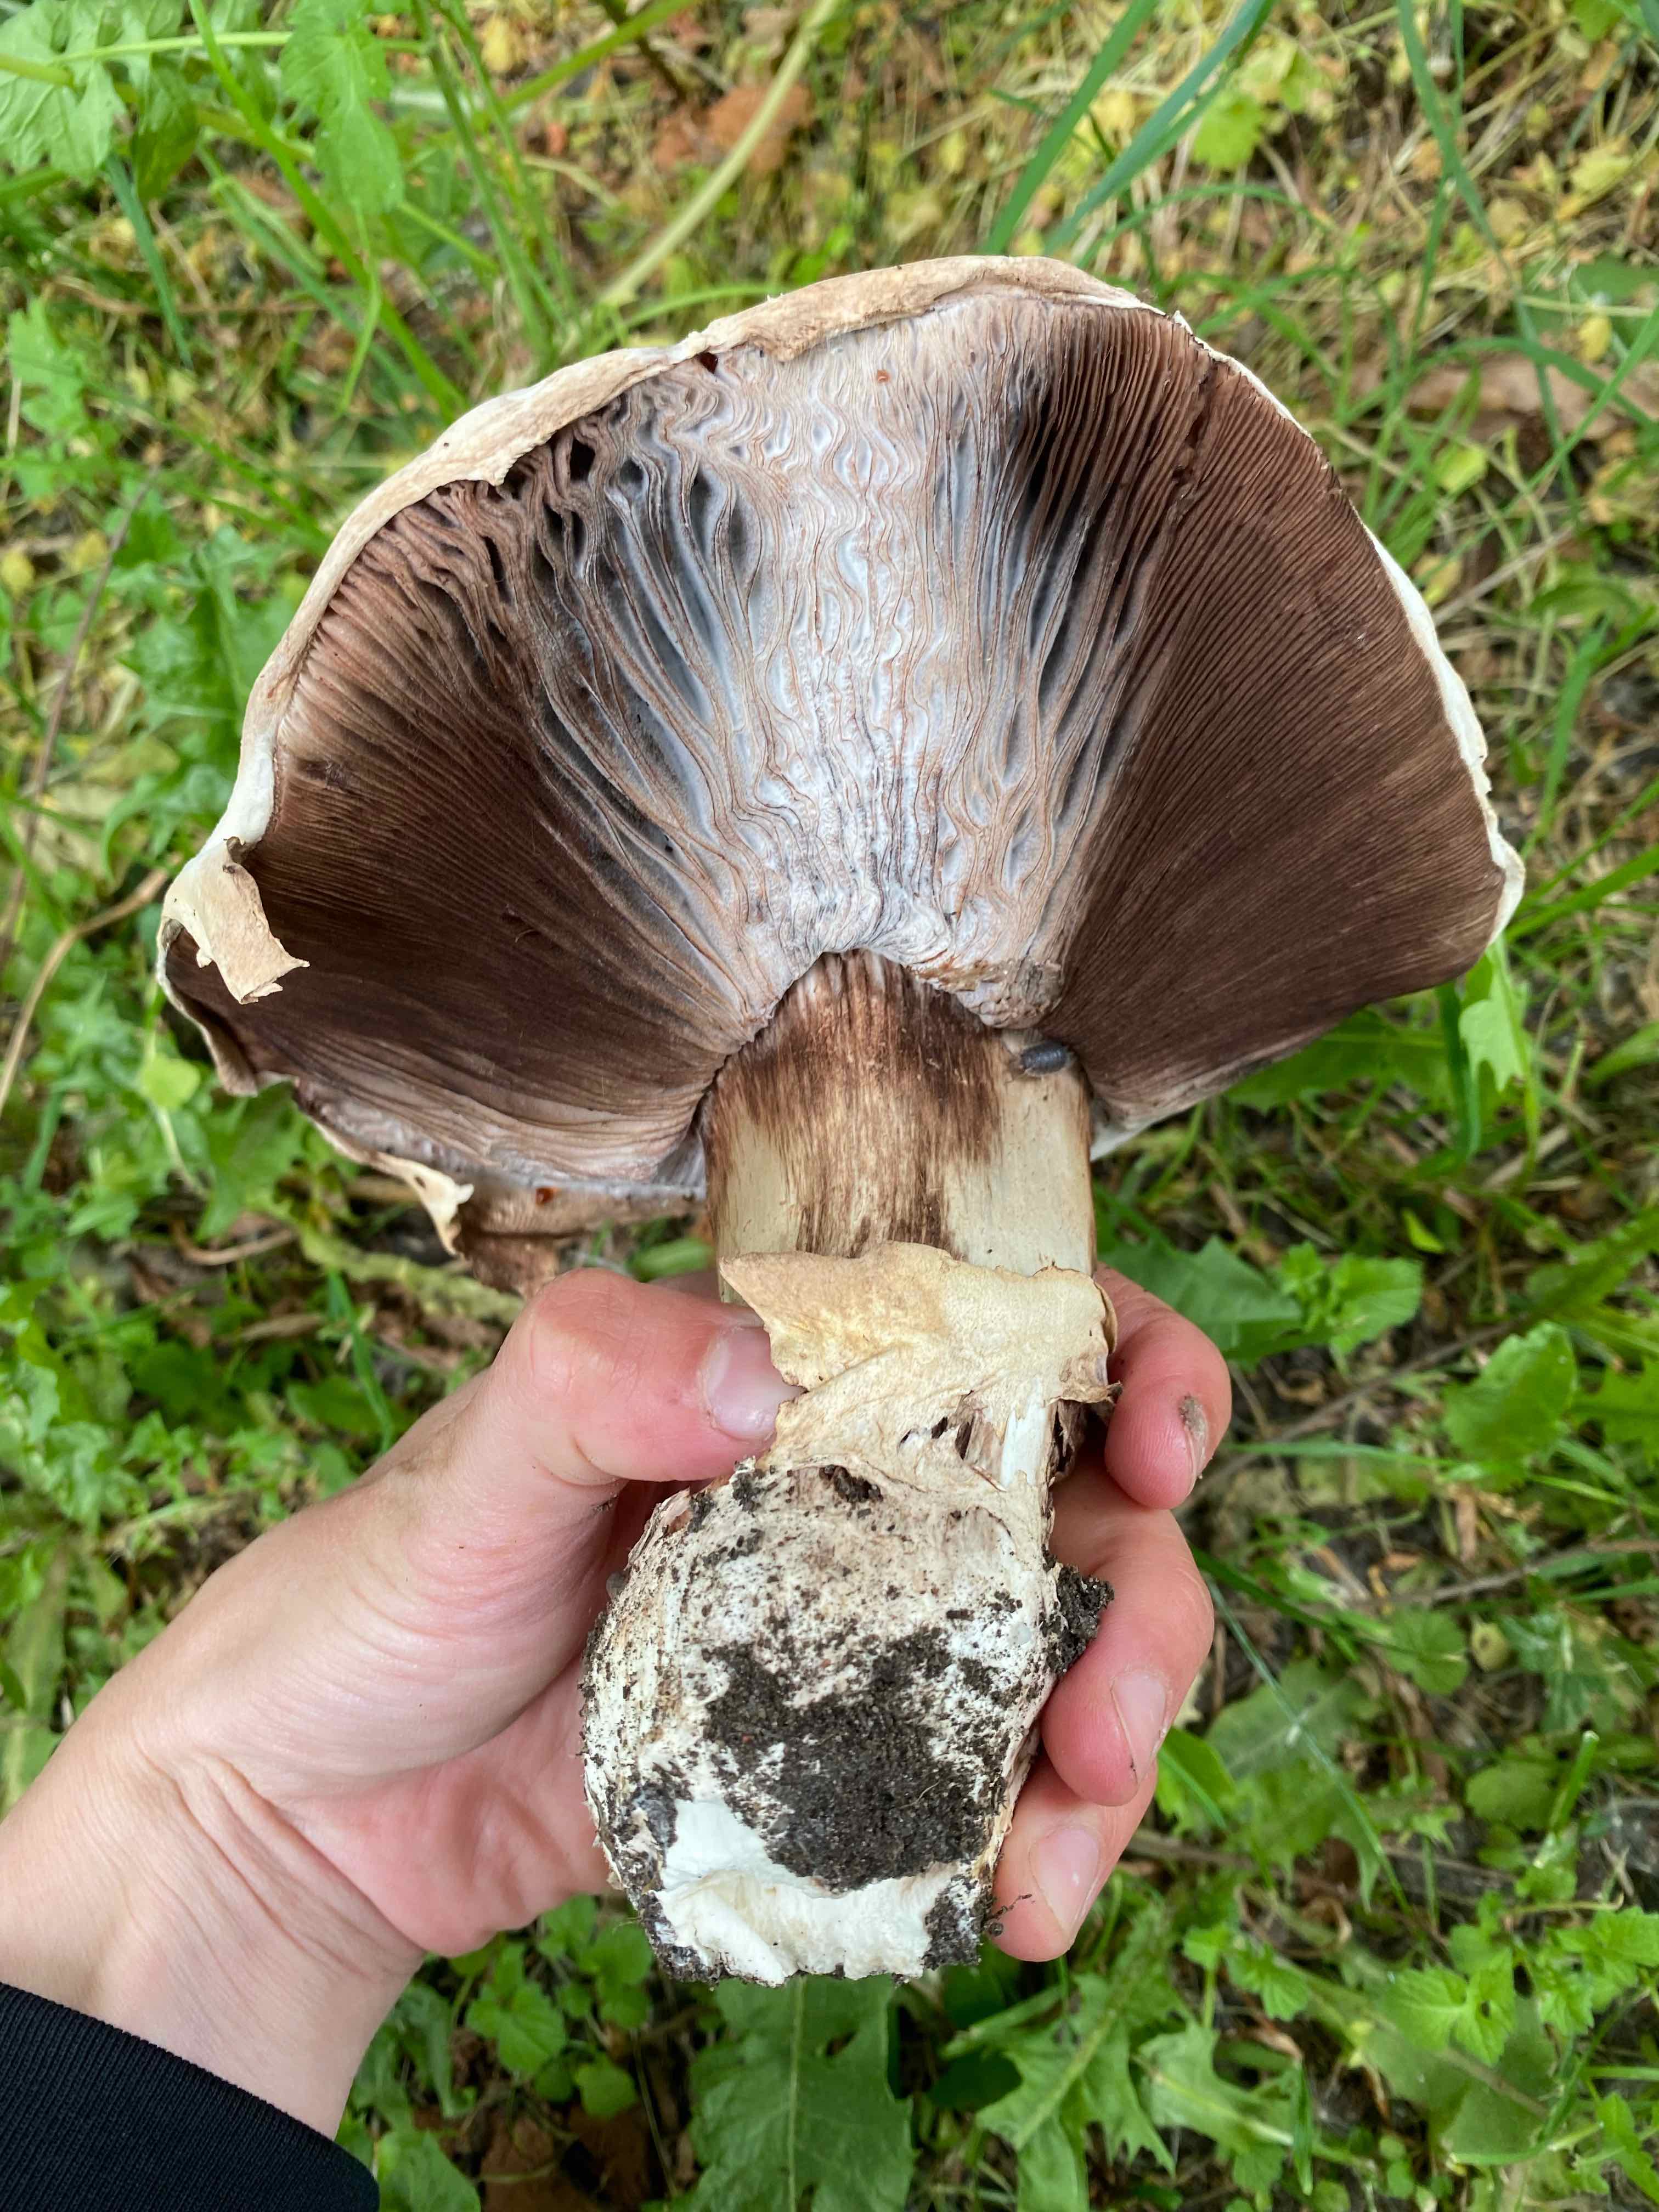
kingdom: Fungi
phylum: Ascomycota
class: Sordariomycetes
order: Hypocreales
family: Hypocreaceae
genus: Hypomyces
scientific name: Hypomyces
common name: snylteskorpe
